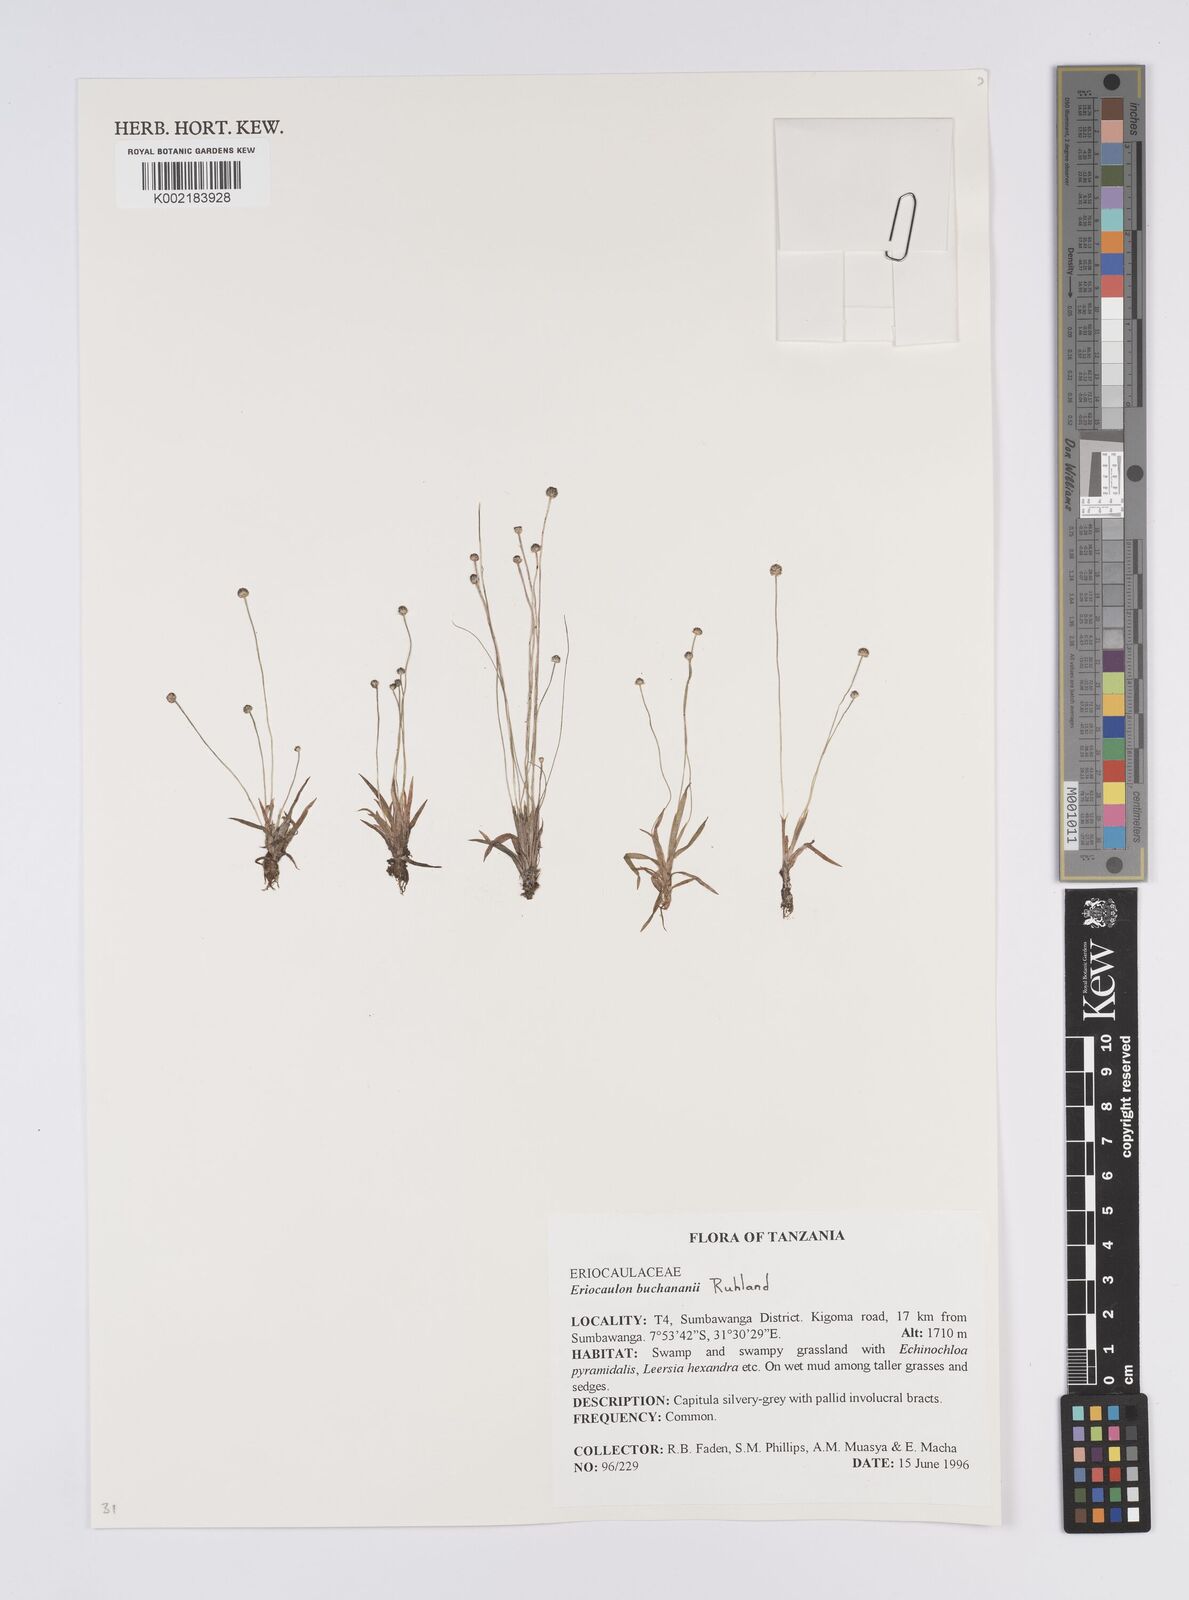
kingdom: Plantae
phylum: Tracheophyta
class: Liliopsida
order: Poales
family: Eriocaulaceae
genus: Eriocaulon
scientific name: Eriocaulon buchananii
